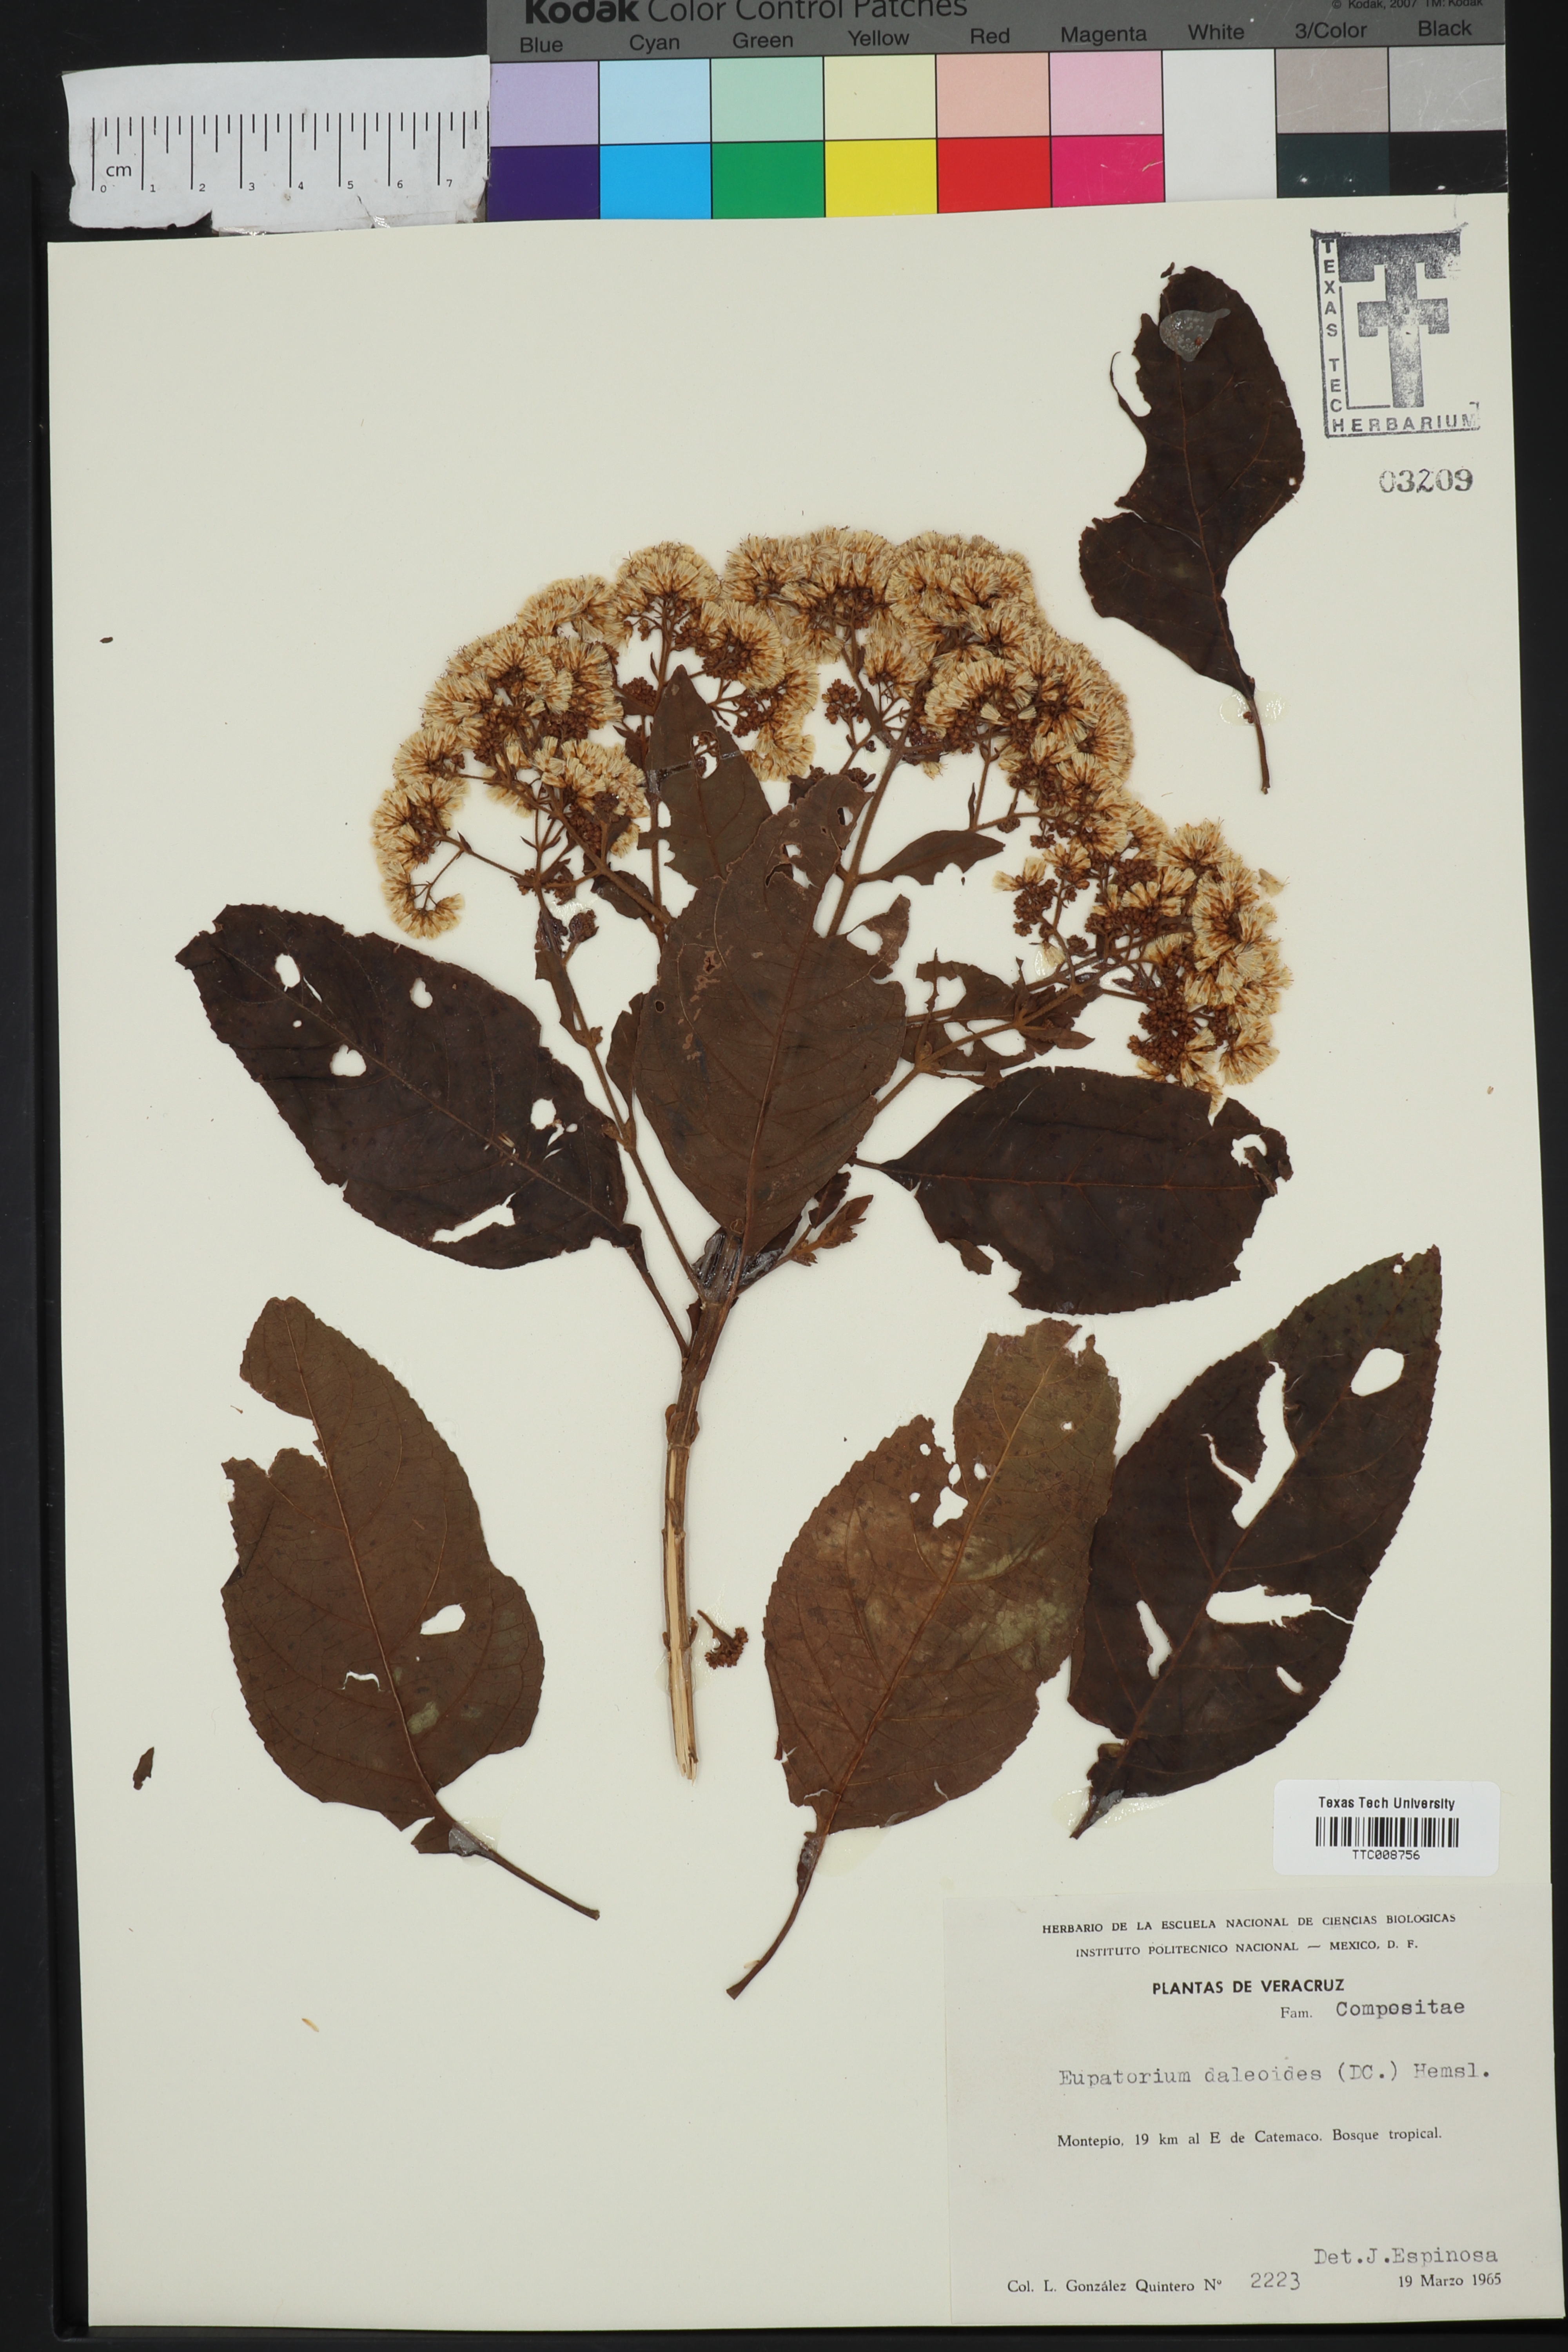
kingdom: Plantae
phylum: Tracheophyta
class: Magnoliopsida
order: Asterales
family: Asteraceae
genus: Critonia
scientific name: Critonia daleoides
